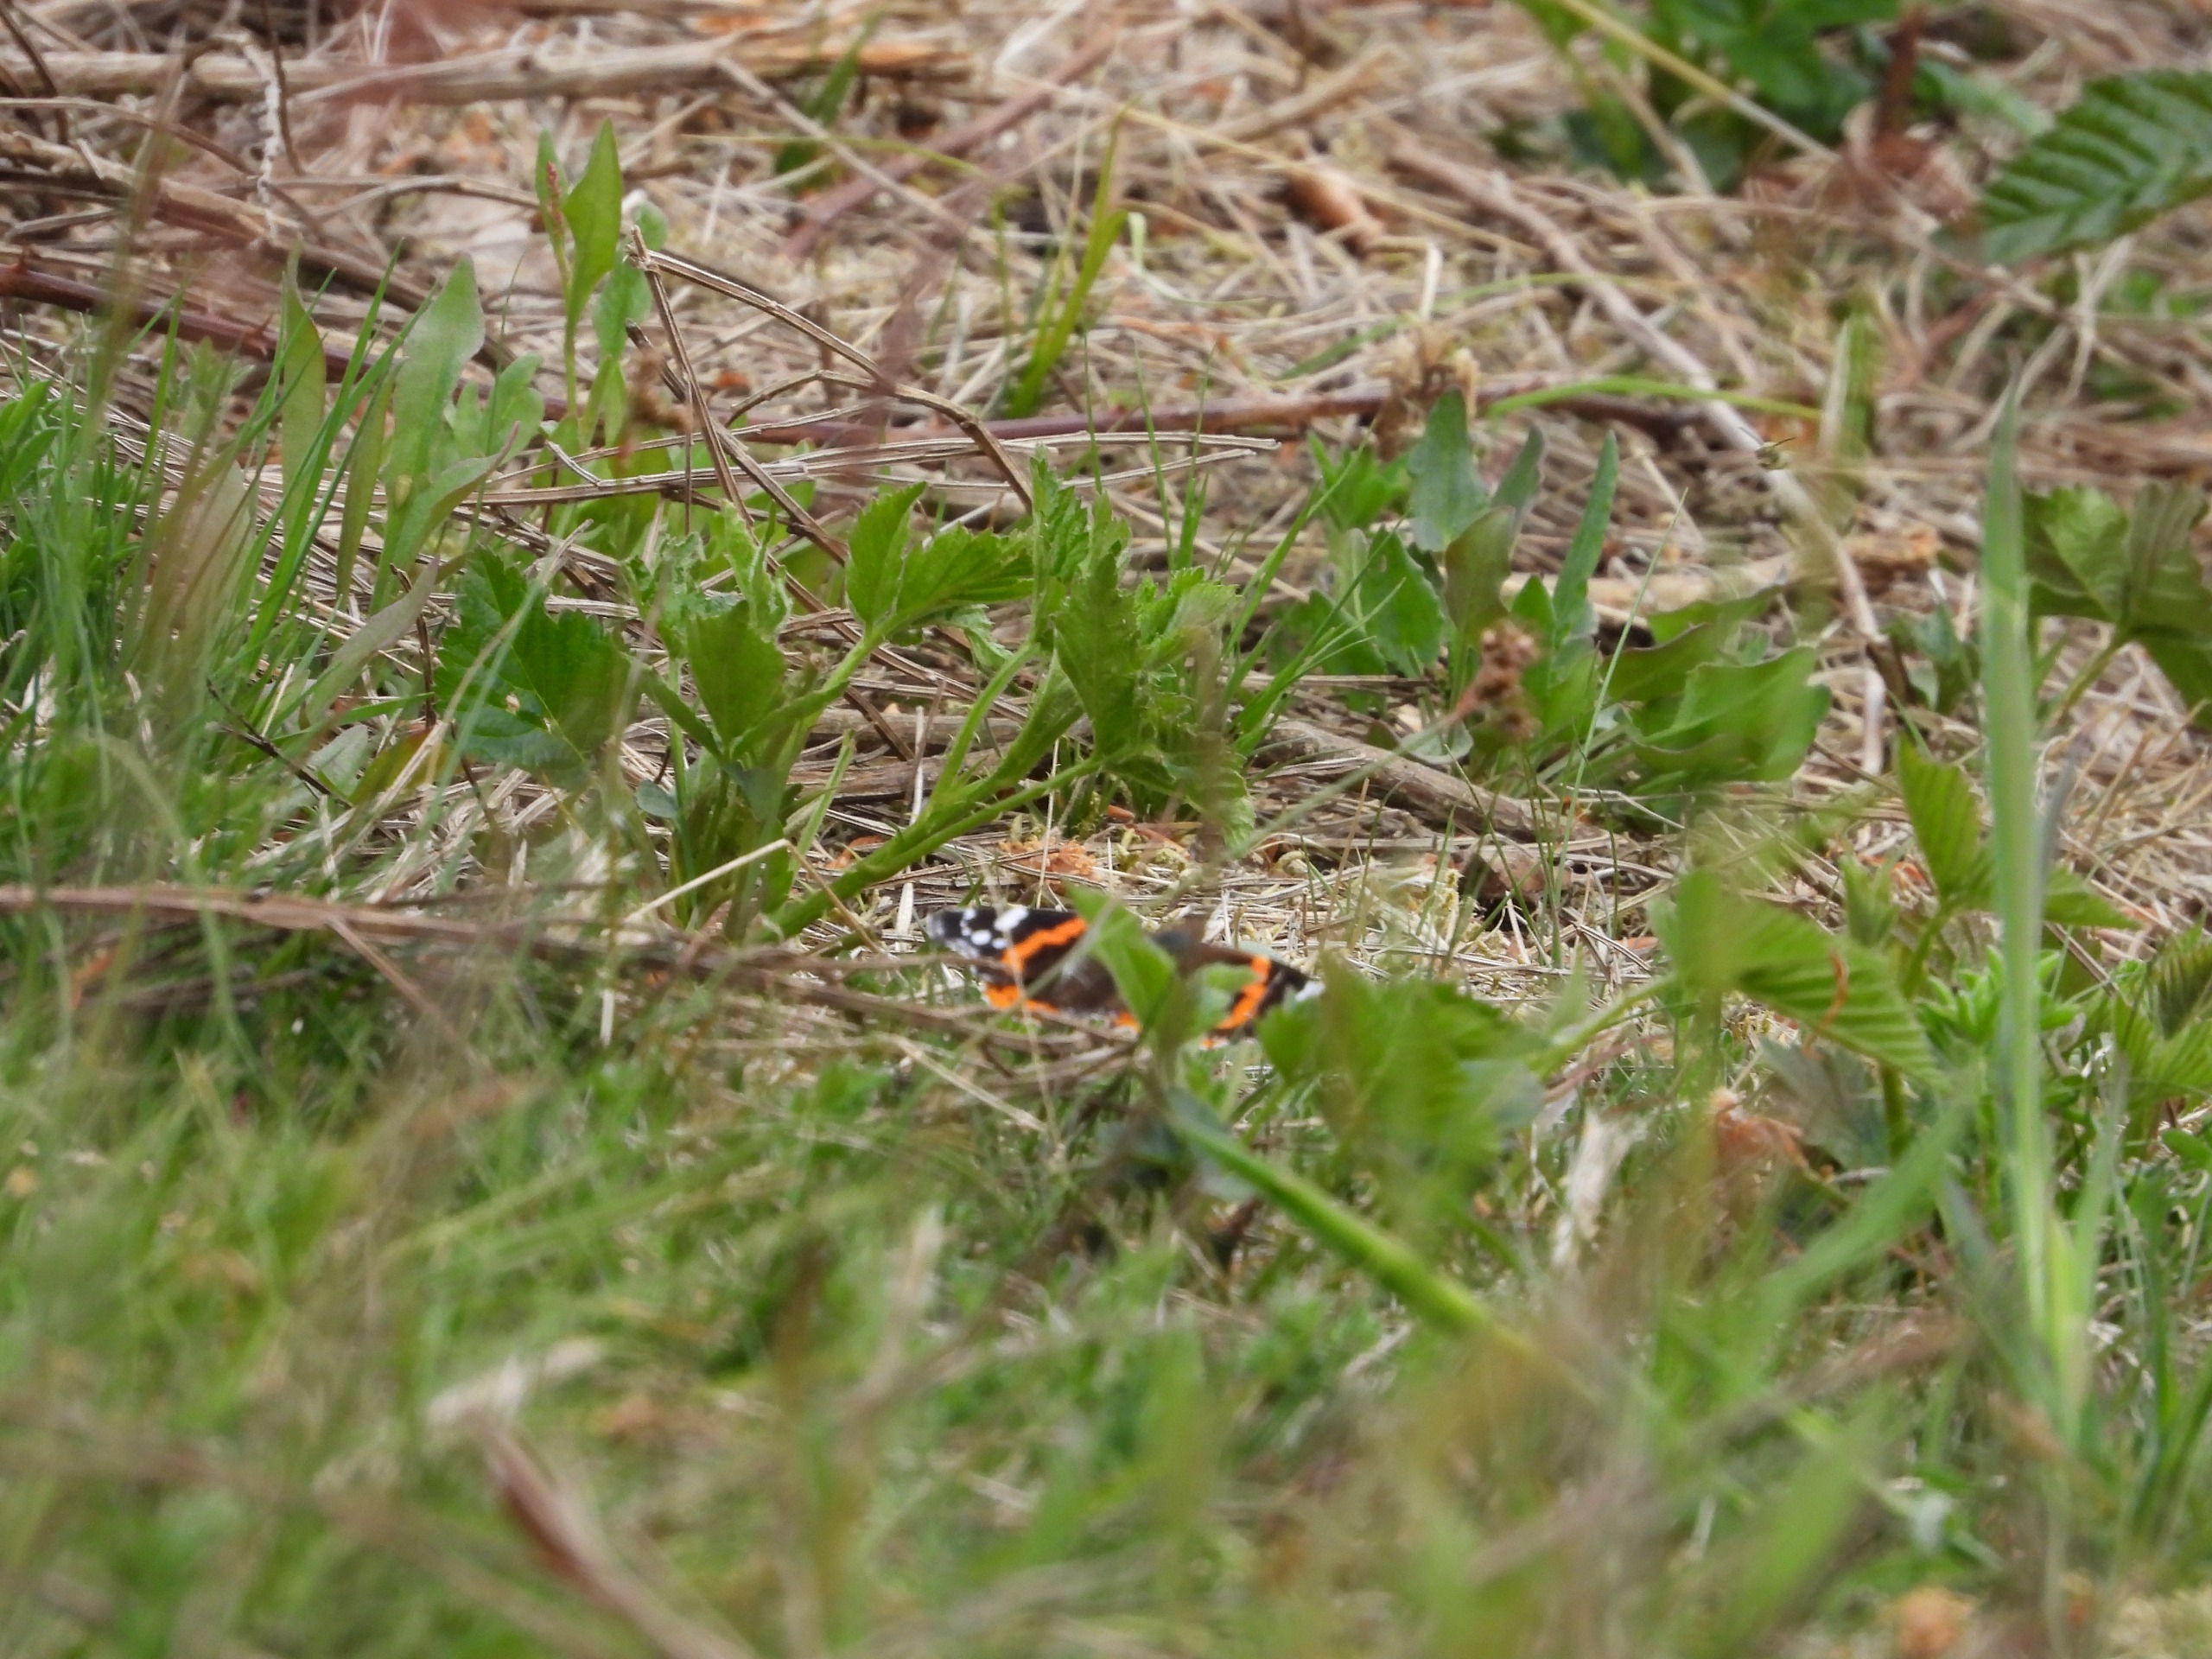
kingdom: Animalia
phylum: Arthropoda
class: Insecta
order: Lepidoptera
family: Nymphalidae
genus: Vanessa
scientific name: Vanessa atalanta
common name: Admiral
